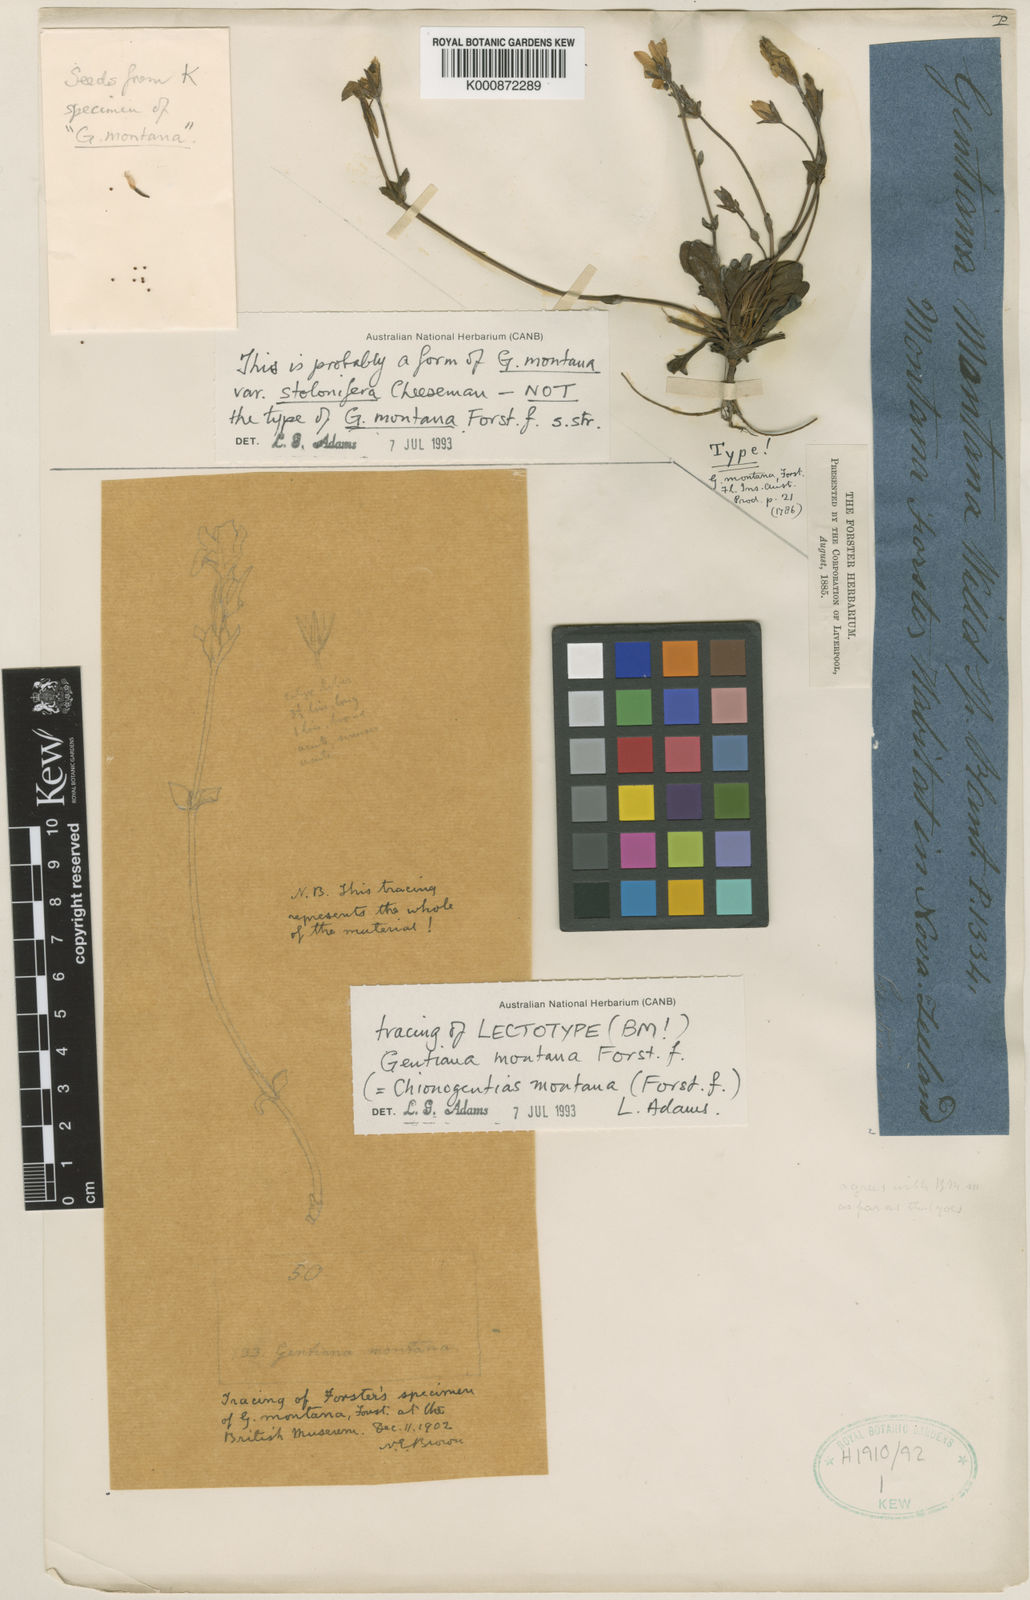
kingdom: Plantae
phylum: Tracheophyta
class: Magnoliopsida
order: Gentianales
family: Gentianaceae
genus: Gentianella
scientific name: Gentianella montana
